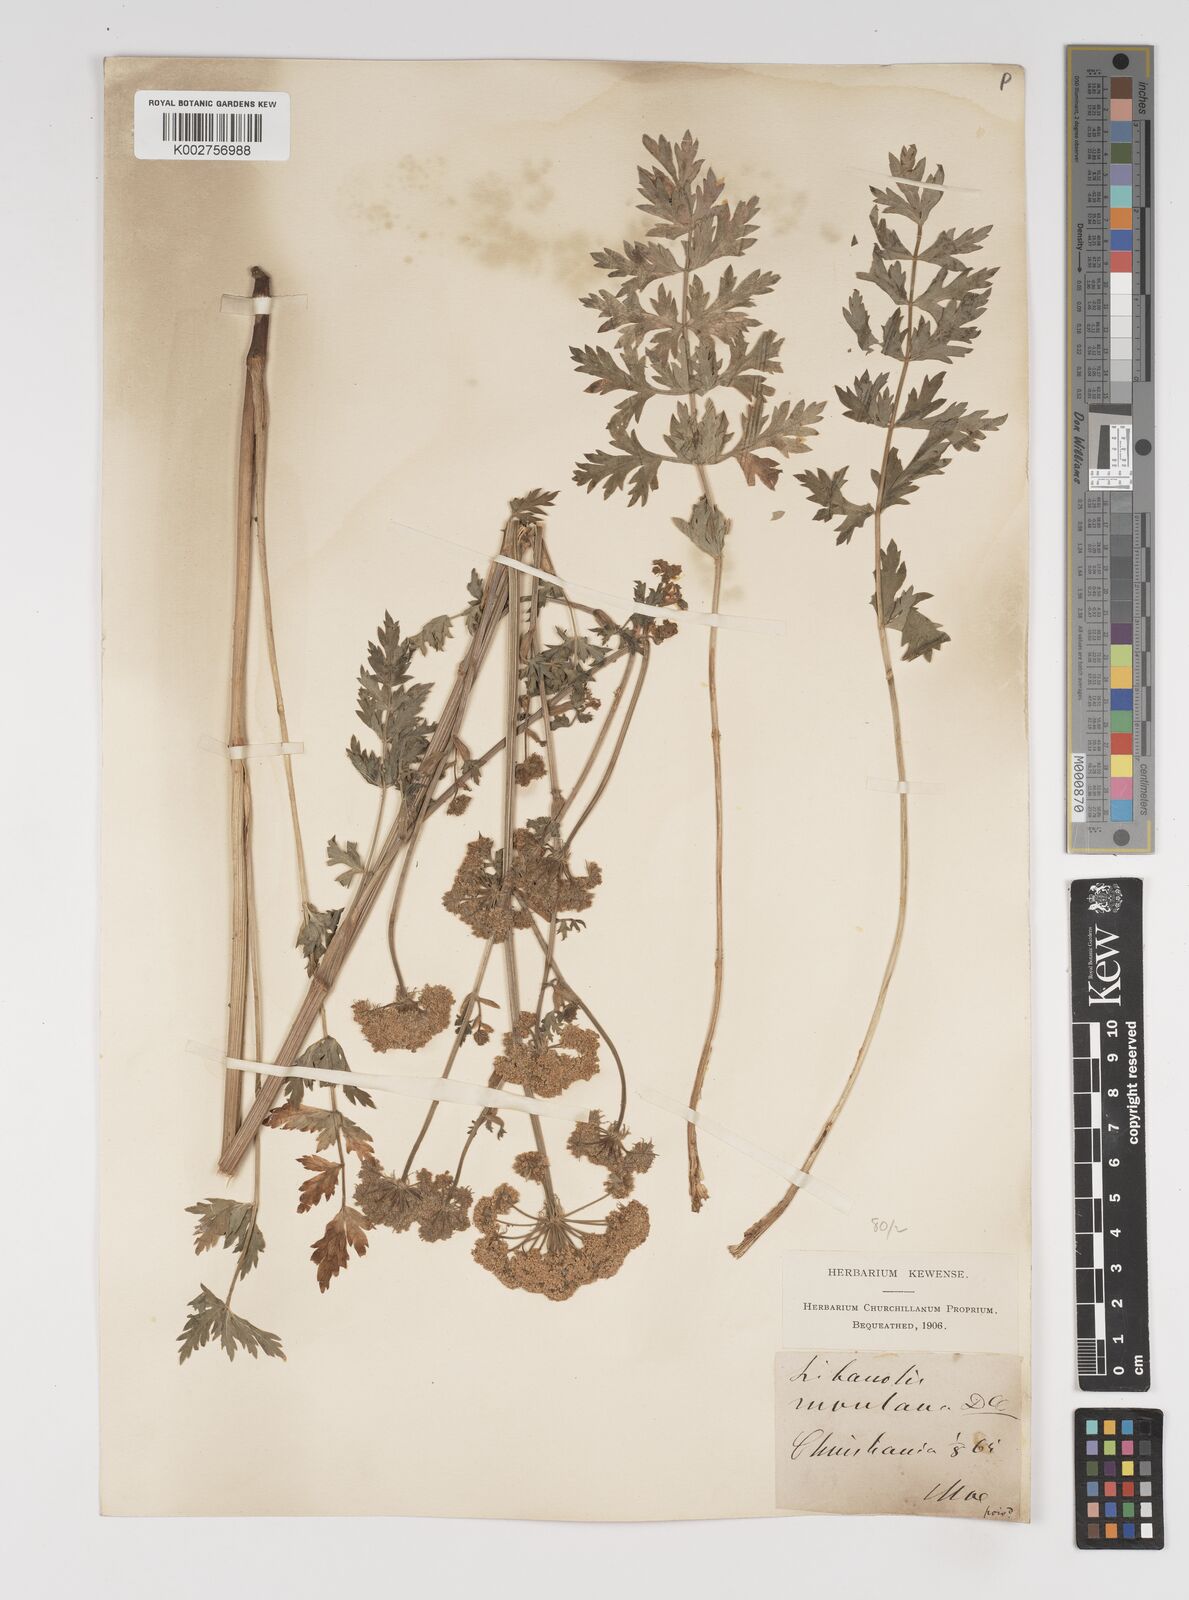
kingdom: Plantae
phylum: Tracheophyta
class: Magnoliopsida
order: Apiales
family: Apiaceae
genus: Seseli
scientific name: Seseli libanotis
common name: Mooncarrot
